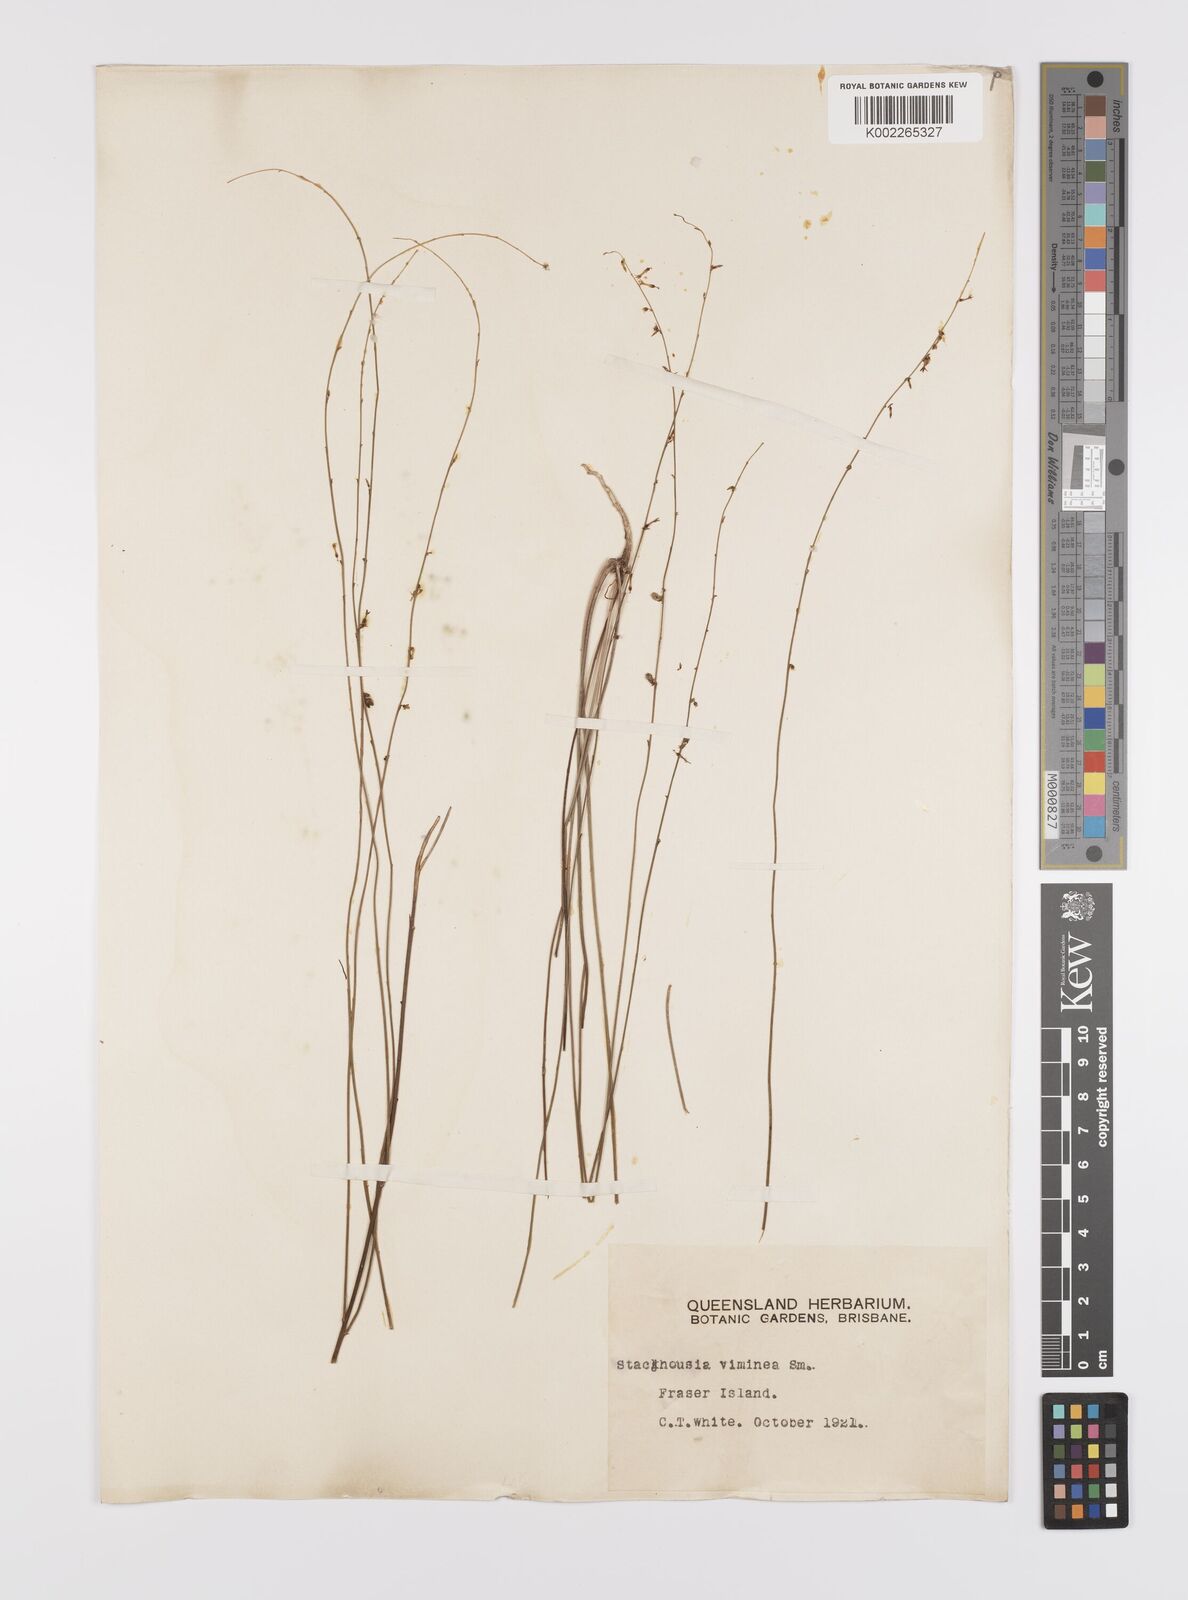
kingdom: Plantae
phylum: Tracheophyta
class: Magnoliopsida
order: Celastrales
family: Celastraceae
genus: Stackhousia
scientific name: Stackhousia viminea
